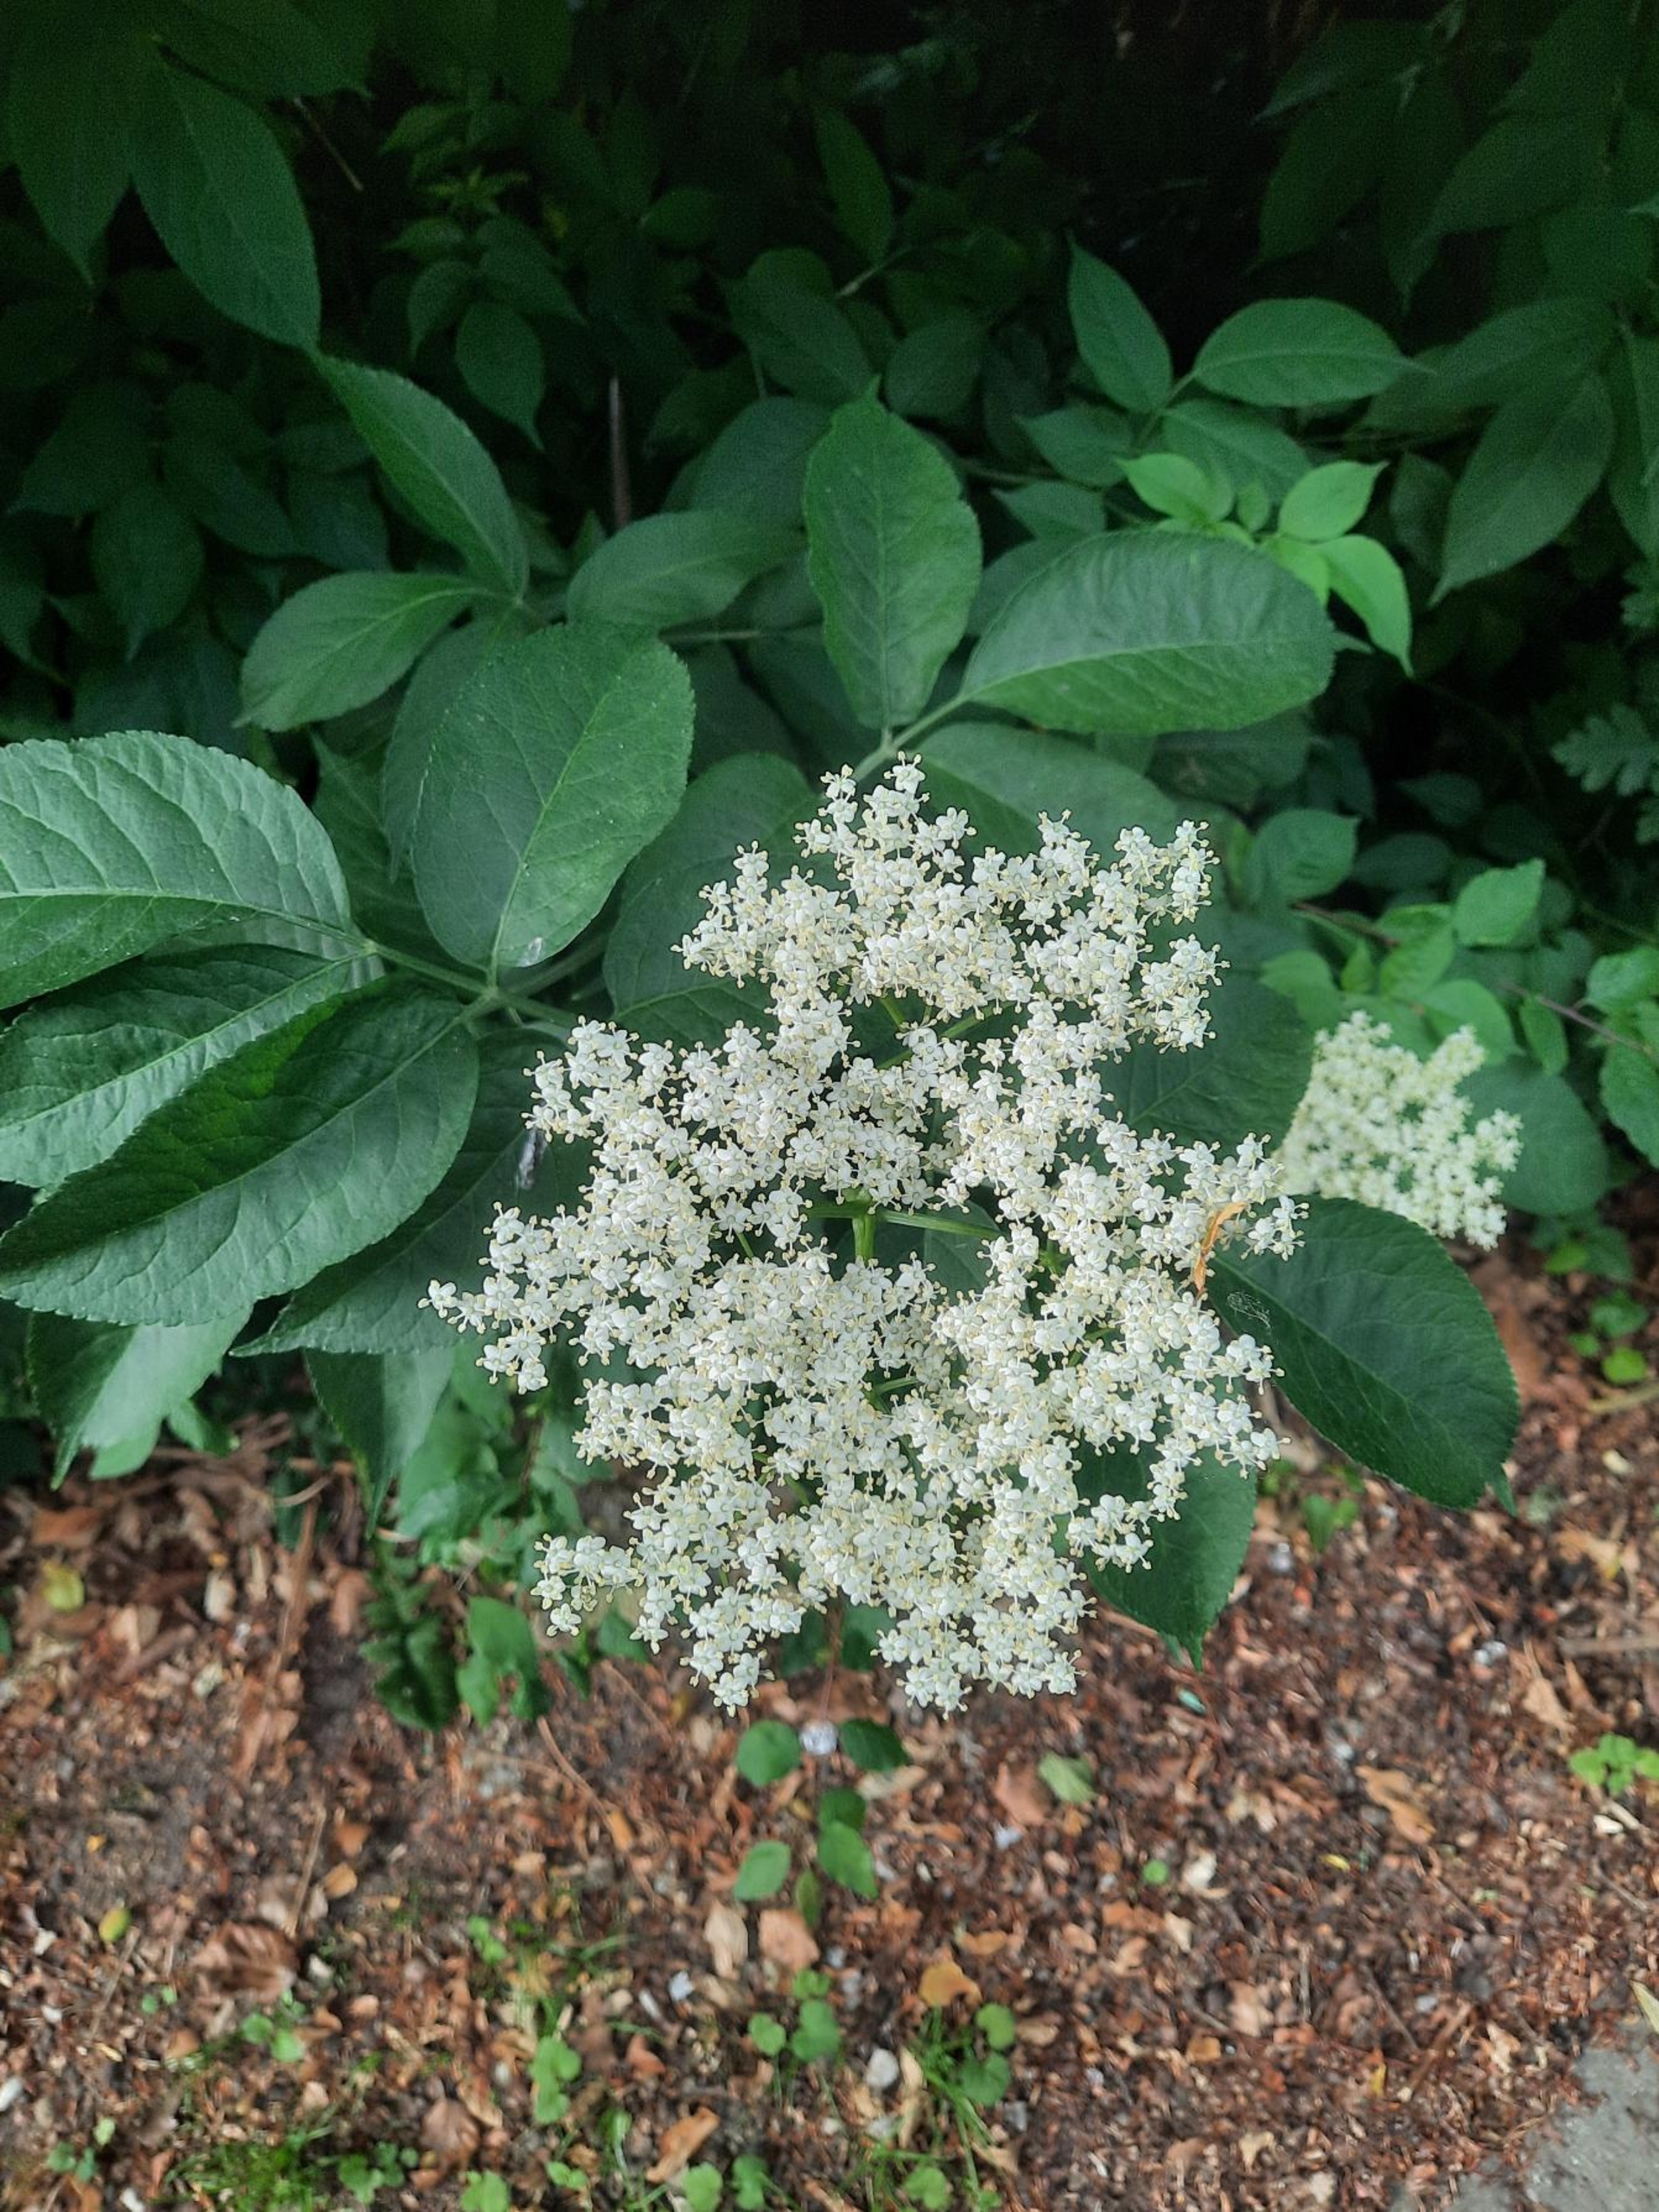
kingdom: Plantae
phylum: Tracheophyta
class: Magnoliopsida
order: Dipsacales
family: Viburnaceae
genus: Sambucus
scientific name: Sambucus nigra
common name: Almindelig hyld
